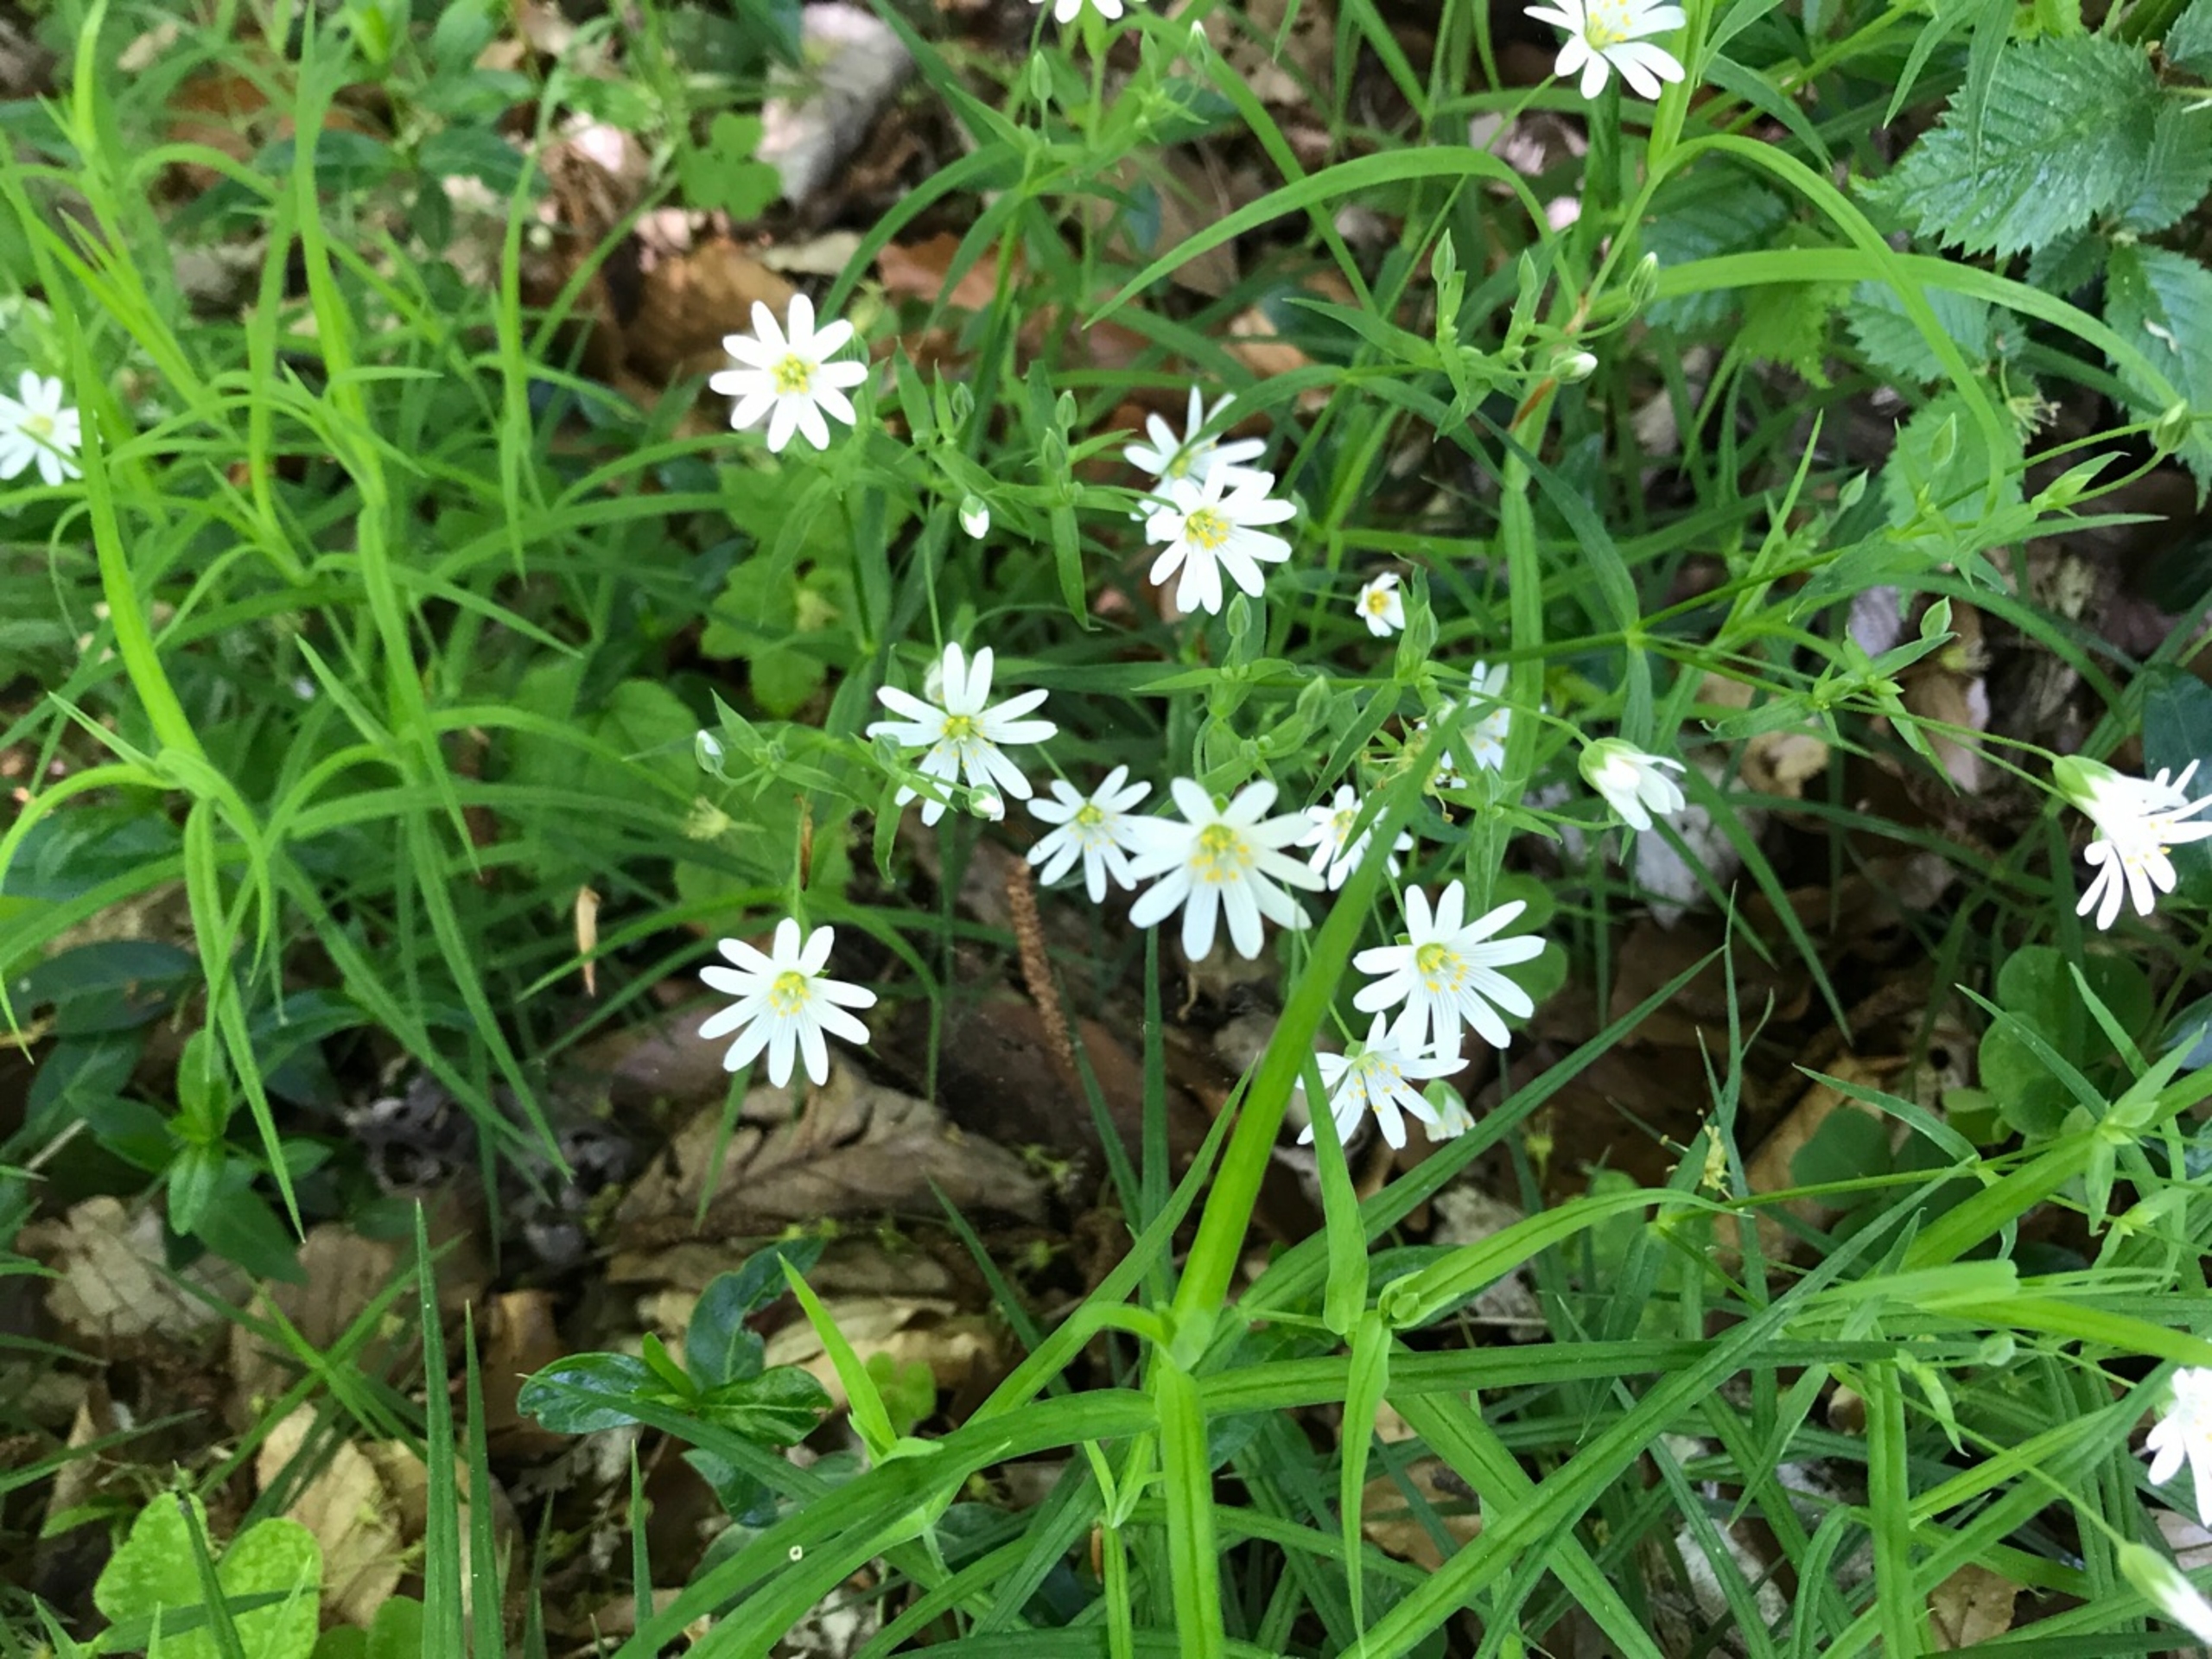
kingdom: Plantae
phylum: Tracheophyta
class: Magnoliopsida
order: Caryophyllales
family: Caryophyllaceae
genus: Rabelera
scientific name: Rabelera holostea
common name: Stor fladstjerne
